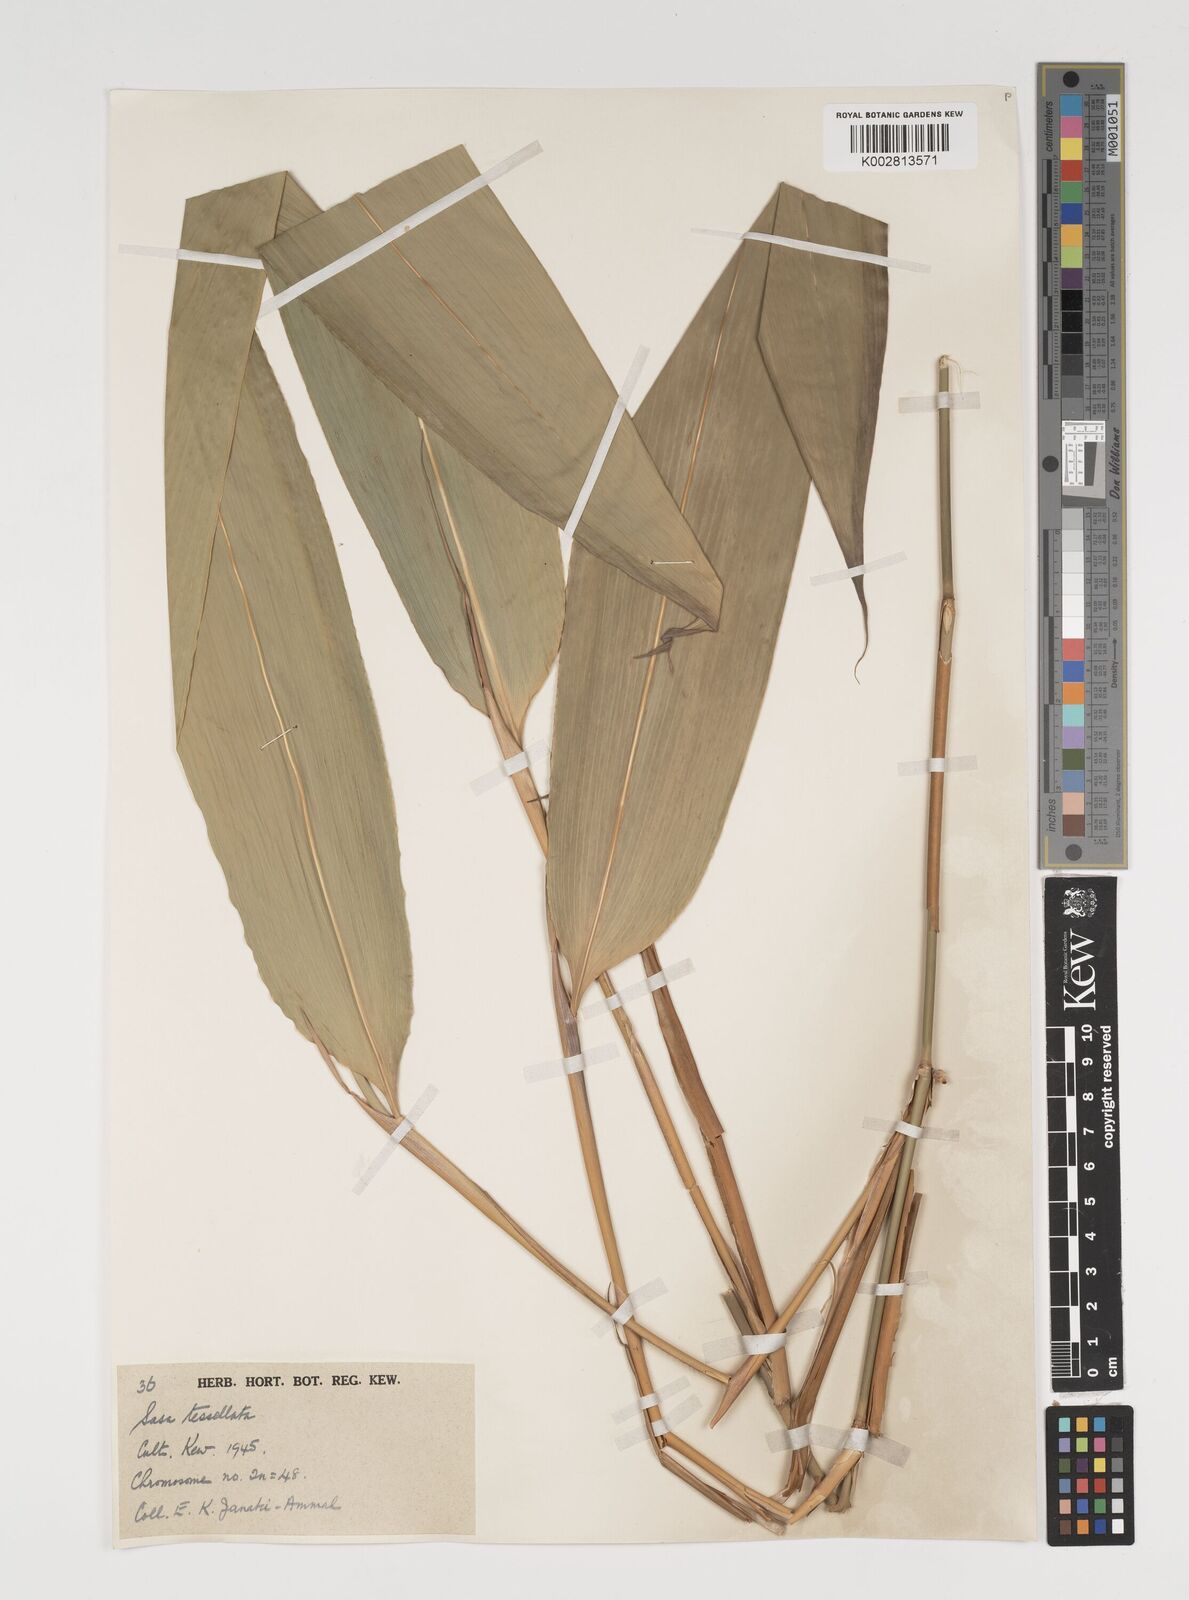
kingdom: Plantae
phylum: Tracheophyta
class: Liliopsida
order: Poales
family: Poaceae
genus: Indocalamus
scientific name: Indocalamus tessellatus
